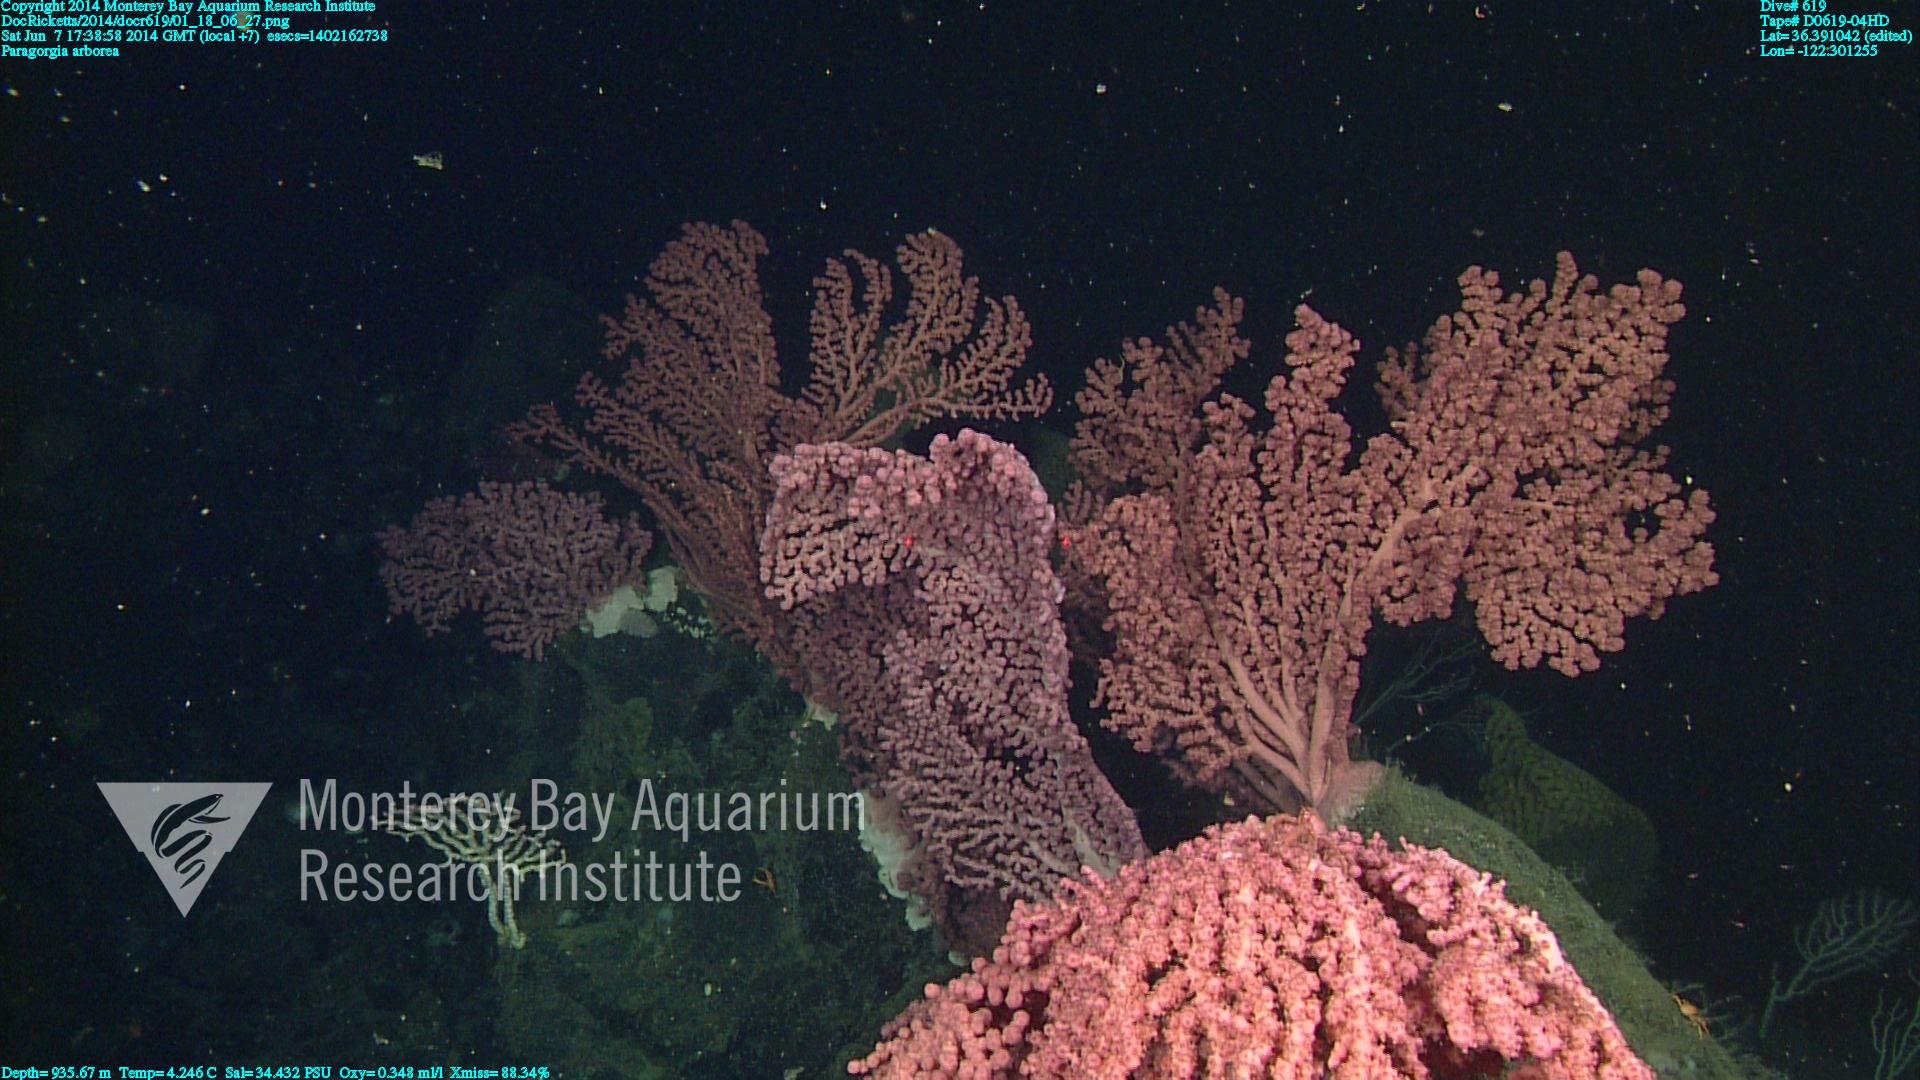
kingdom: Animalia
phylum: Cnidaria
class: Anthozoa
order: Scleralcyonacea
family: Coralliidae
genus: Paragorgia
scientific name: Paragorgia arborea
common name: Bubble gum coral
